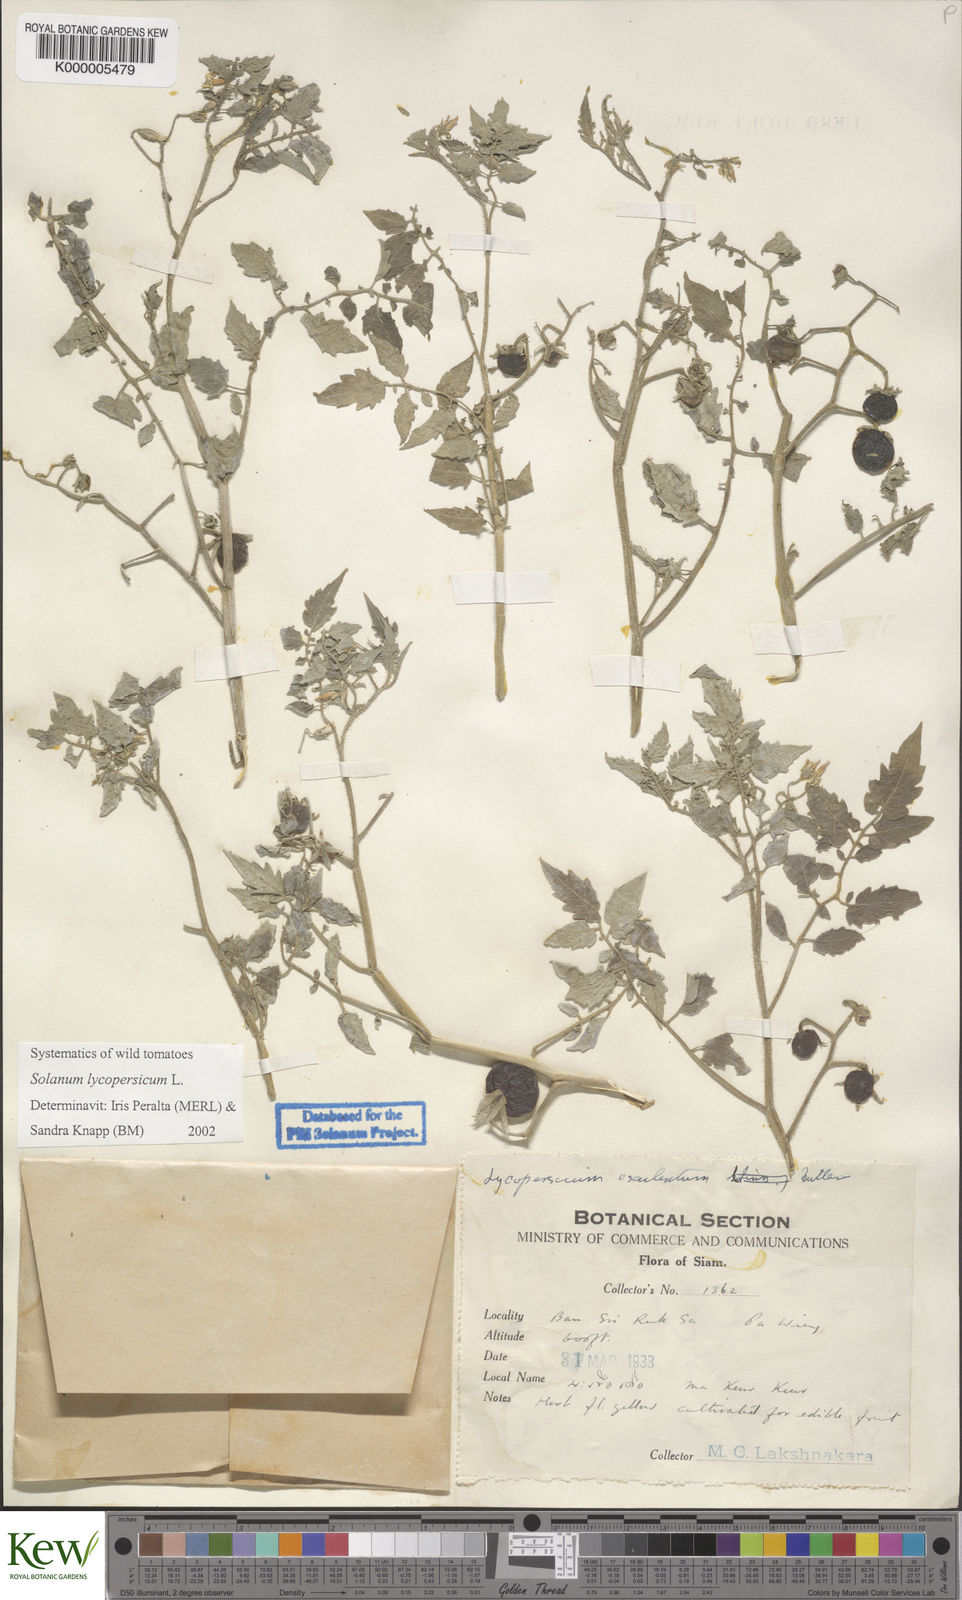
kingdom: Plantae
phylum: Tracheophyta
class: Magnoliopsida
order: Solanales
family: Solanaceae
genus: Solanum
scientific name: Solanum lycopersicum
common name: Garden tomato
